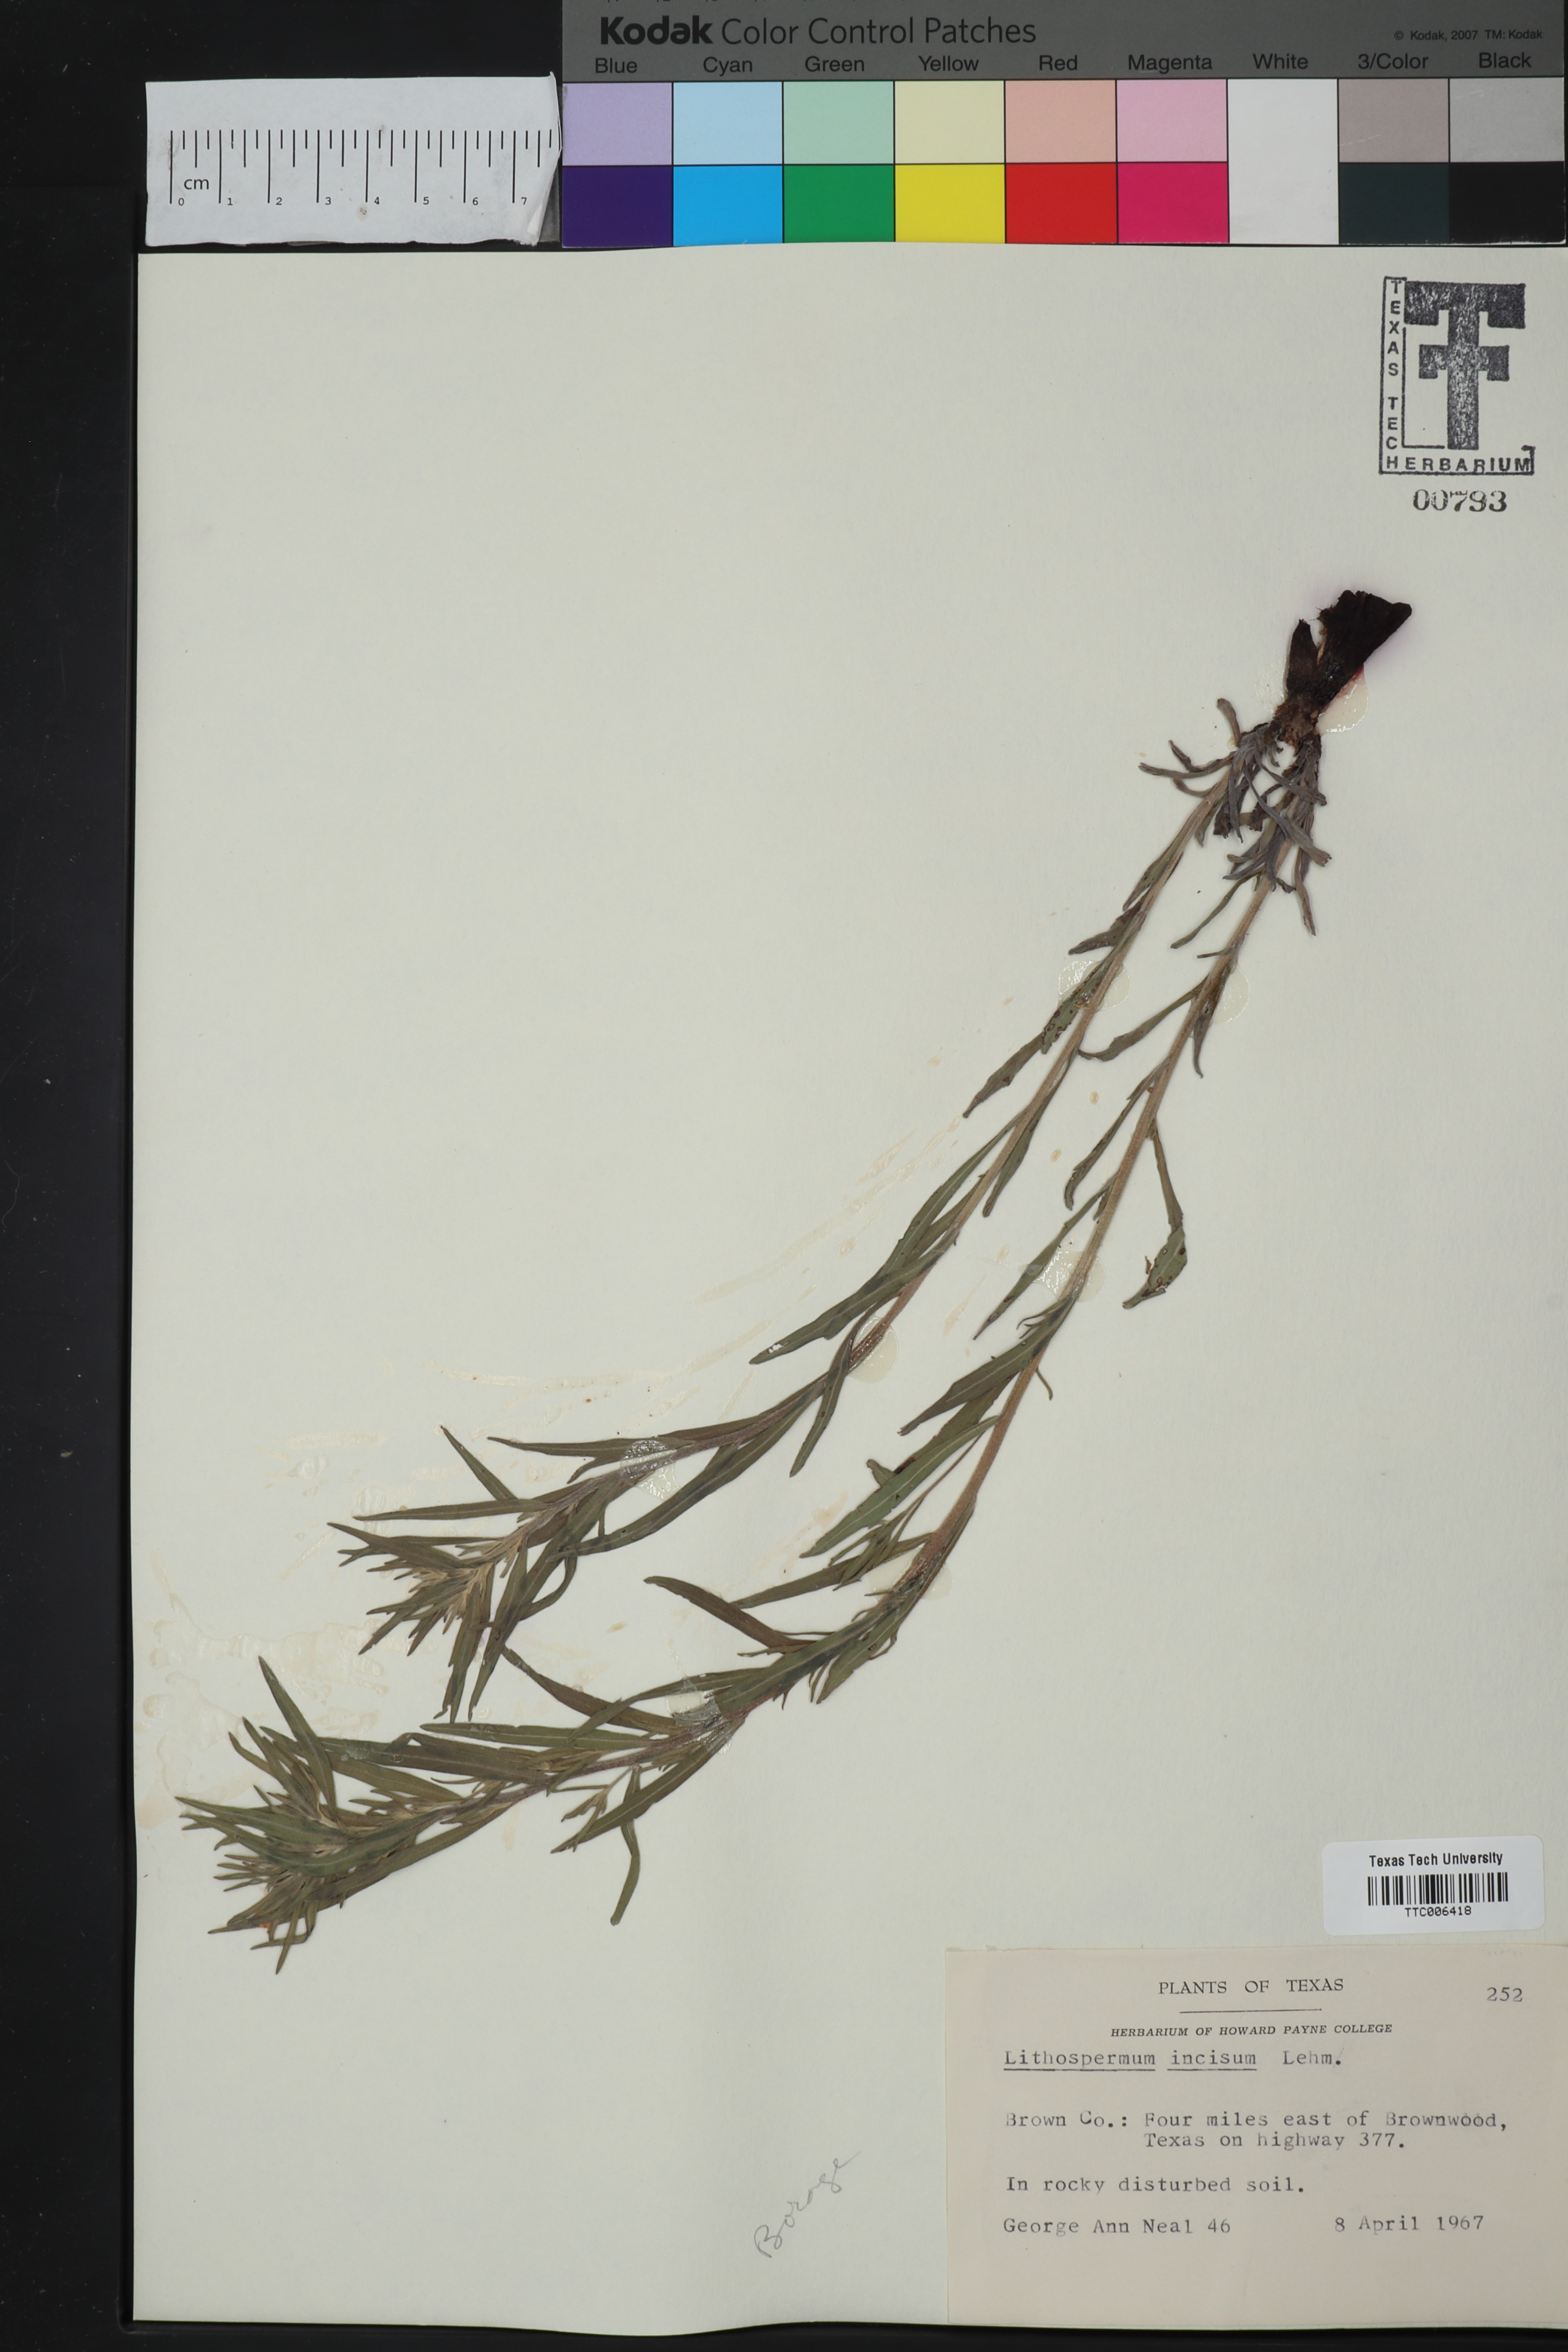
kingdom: Plantae
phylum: Tracheophyta
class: Magnoliopsida
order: Boraginales
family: Boraginaceae
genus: Lithospermum
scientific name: Lithospermum incisum
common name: Fringed gromwell
